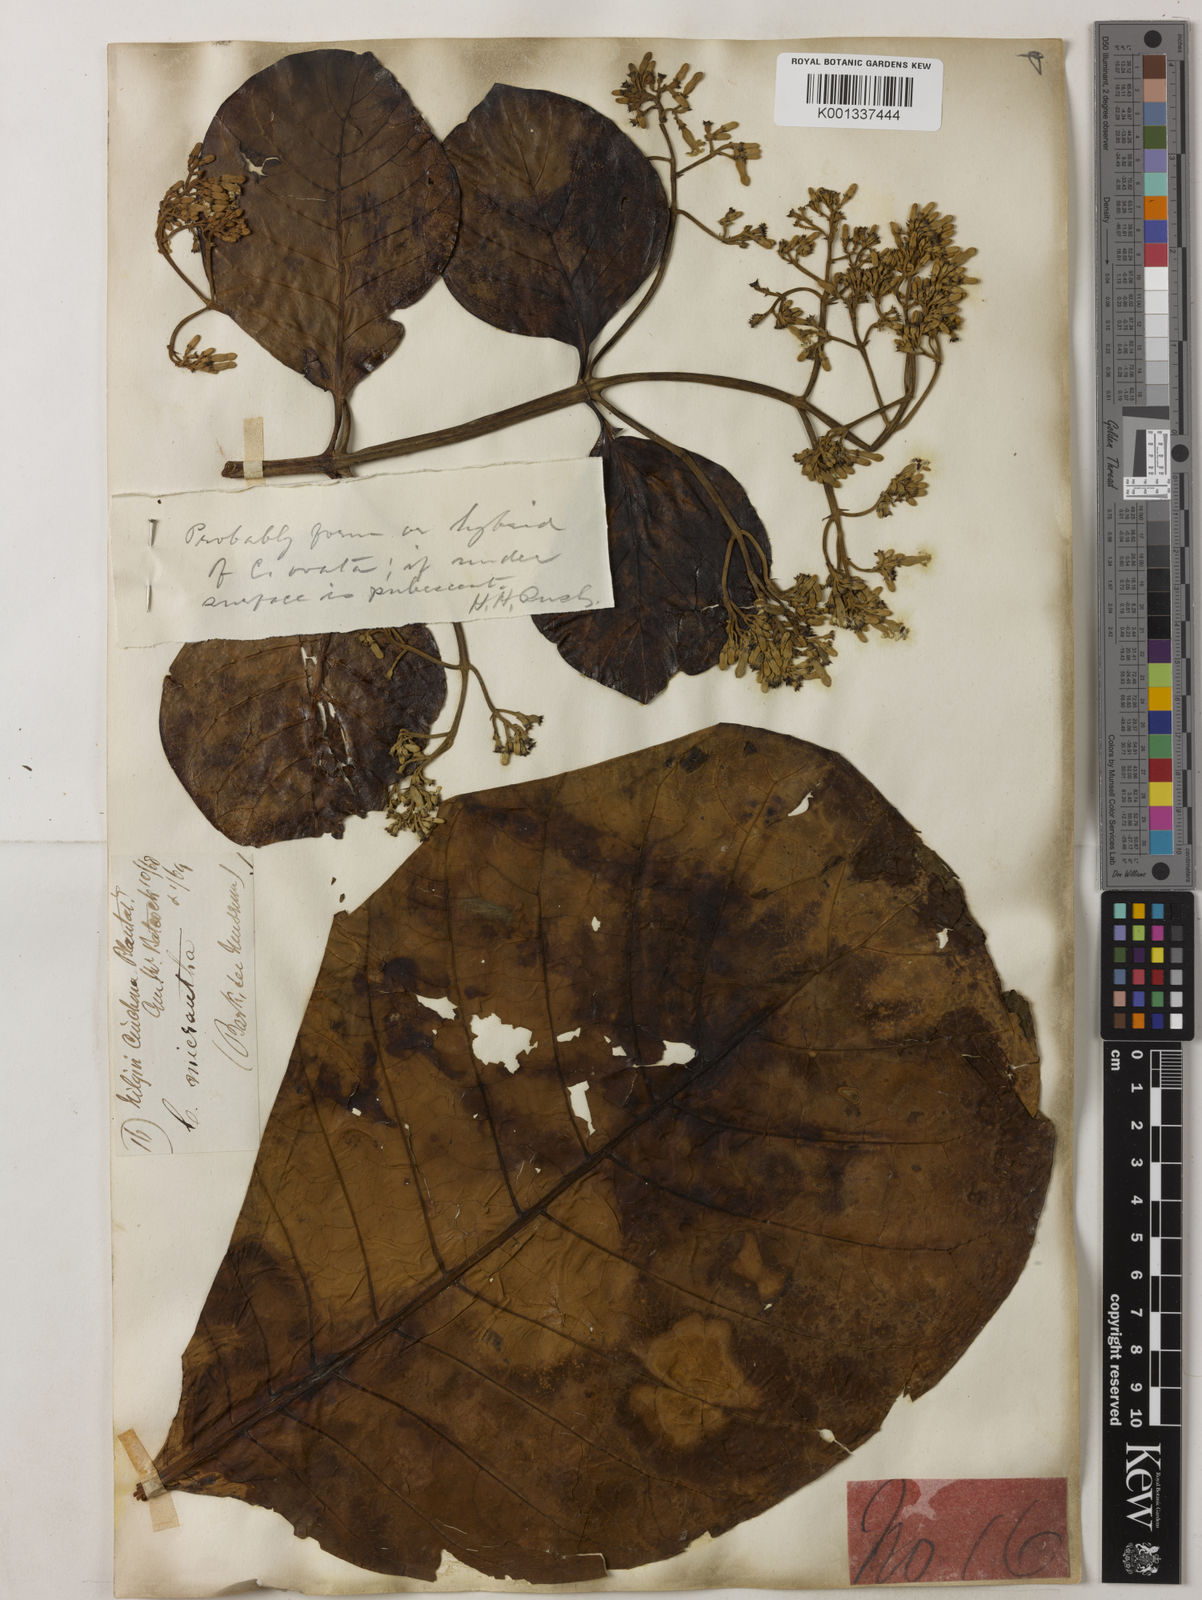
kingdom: Plantae
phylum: Tracheophyta
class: Magnoliopsida
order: Gentianales
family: Rubiaceae
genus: Cinchona
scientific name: Cinchona micrantha
